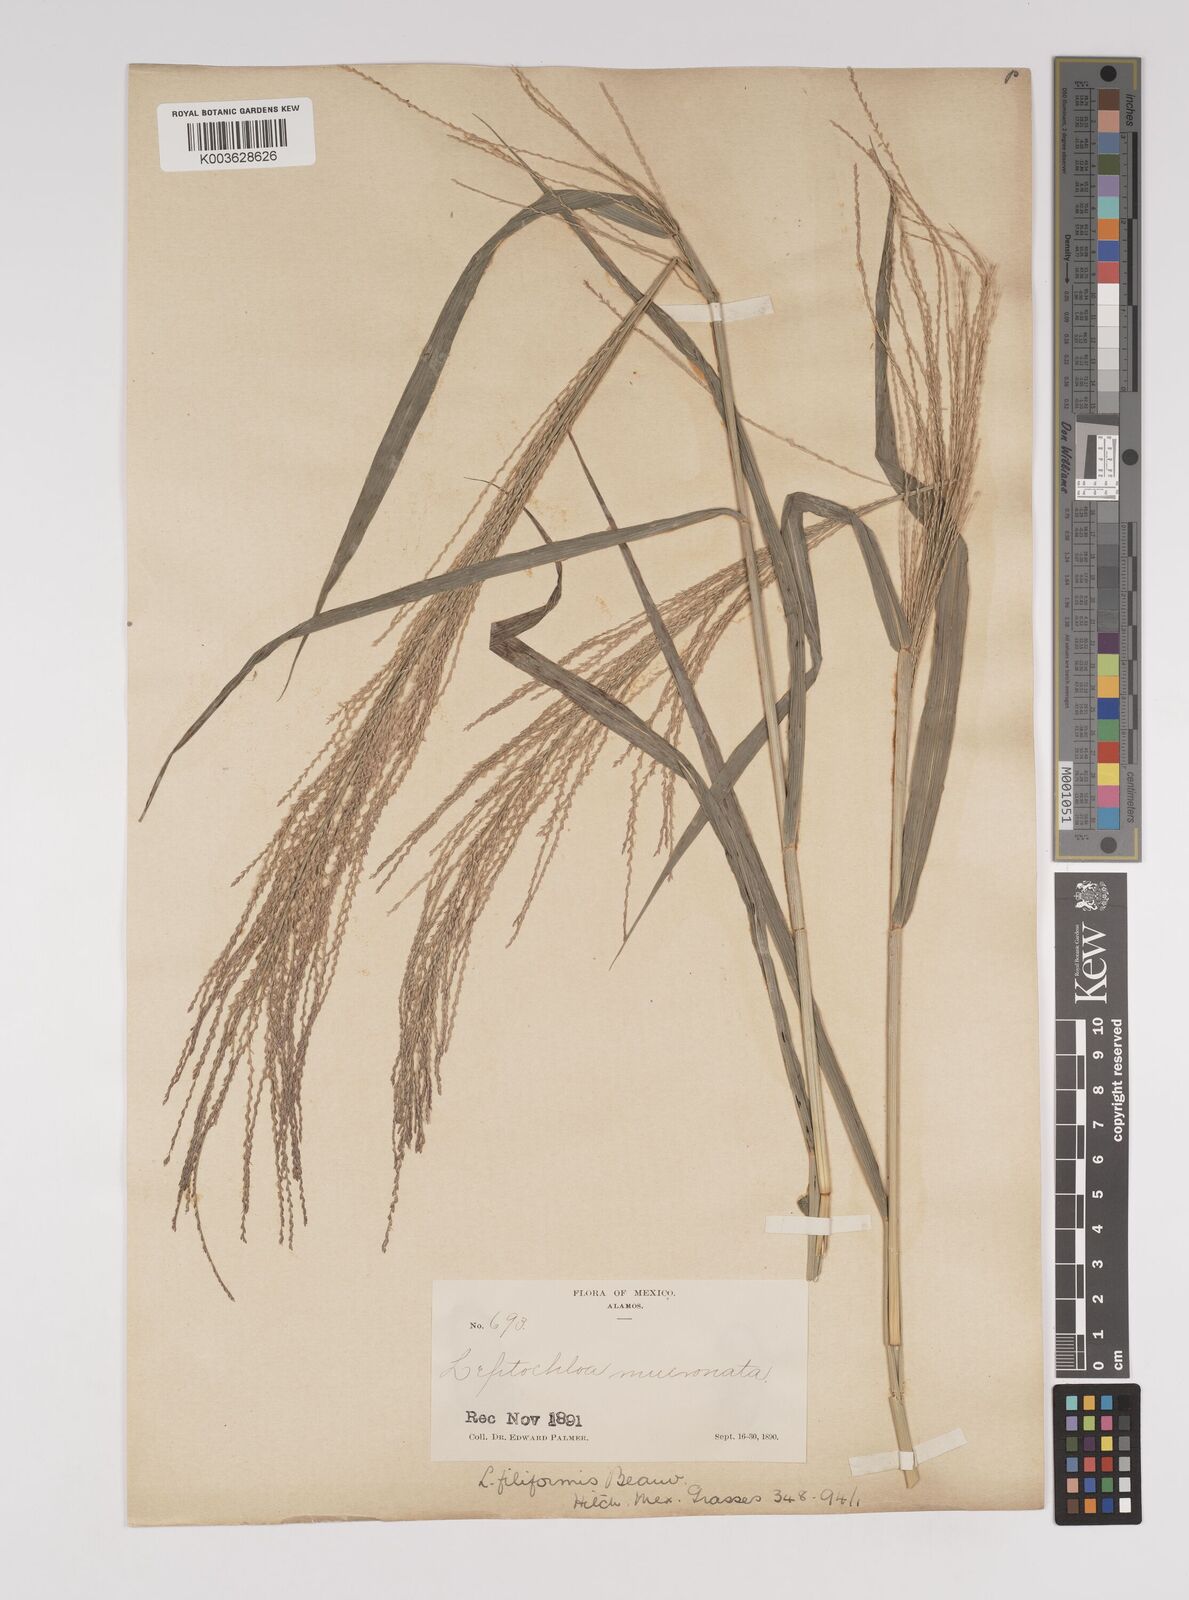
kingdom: Plantae
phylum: Tracheophyta
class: Liliopsida
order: Poales
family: Poaceae
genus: Leptochloa
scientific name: Leptochloa panicea
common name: Mucronate sprangletop
